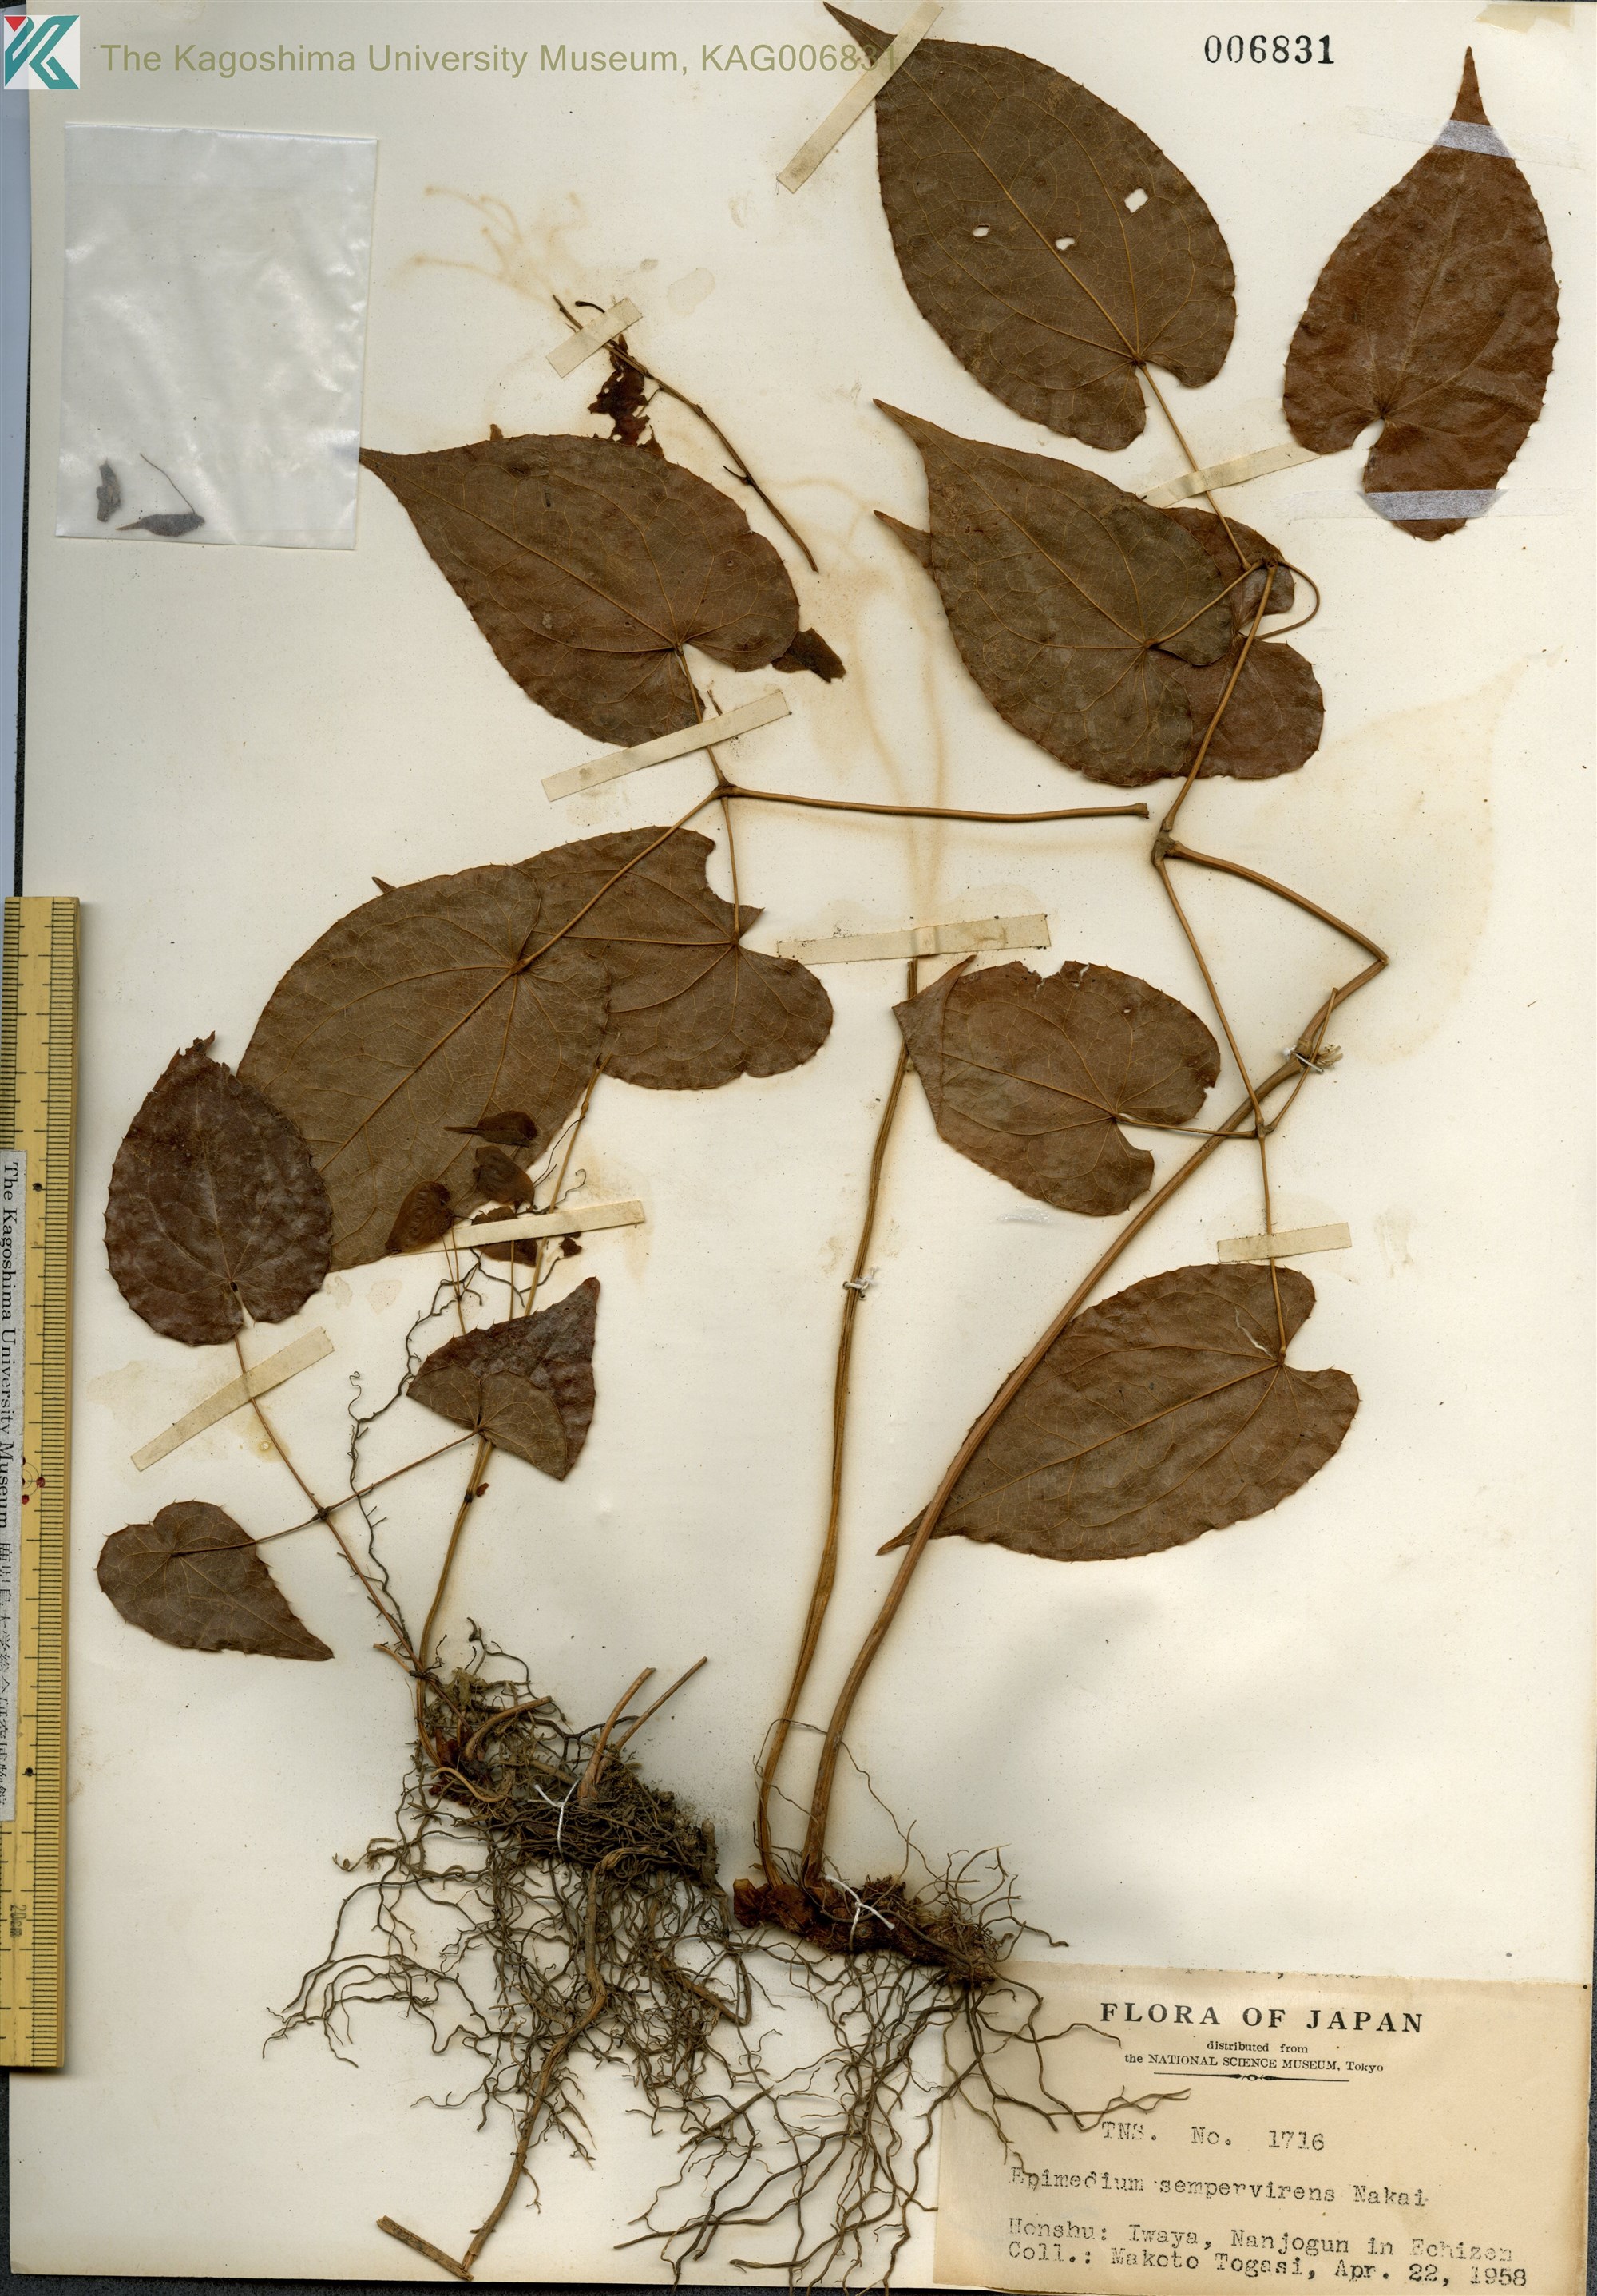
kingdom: Plantae
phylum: Tracheophyta
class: Magnoliopsida
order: Ranunculales
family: Berberidaceae
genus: Epimedium
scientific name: Epimedium sempervirens
